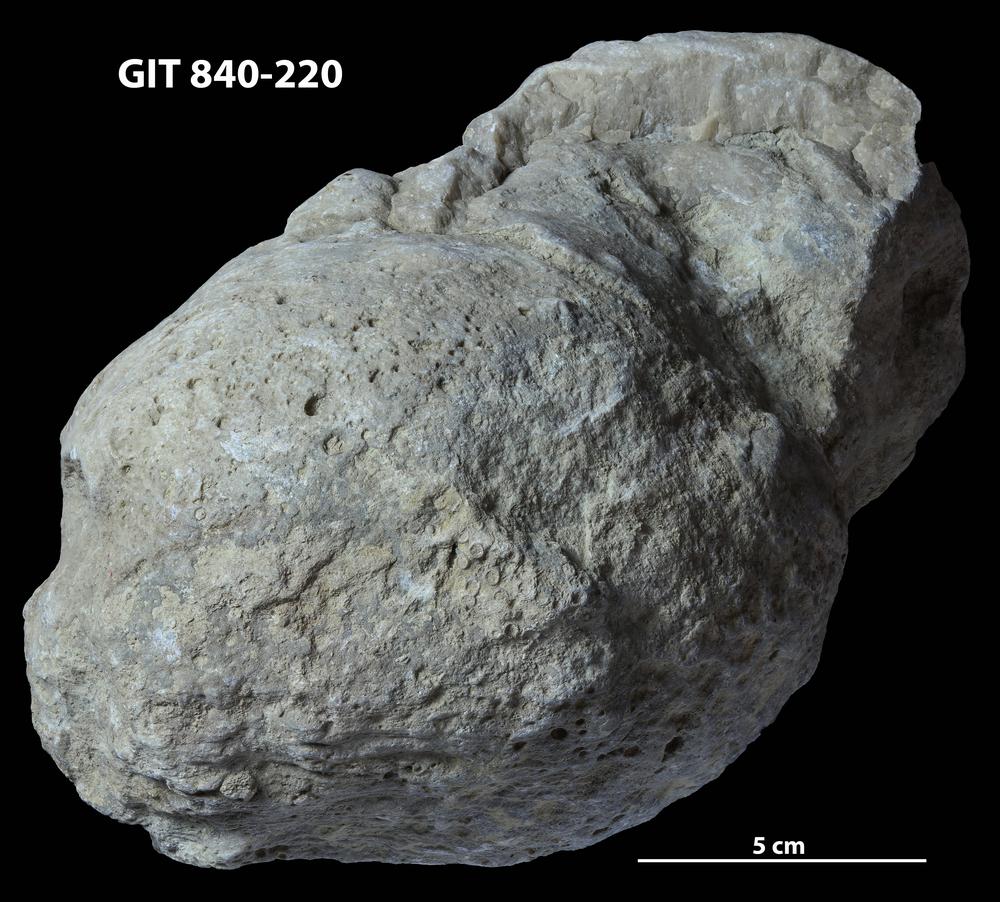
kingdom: Animalia
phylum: Cnidaria
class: Anthozoa
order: Heliolitina
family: Stelliporellidae
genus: Stelliporella
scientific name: Stelliporella
